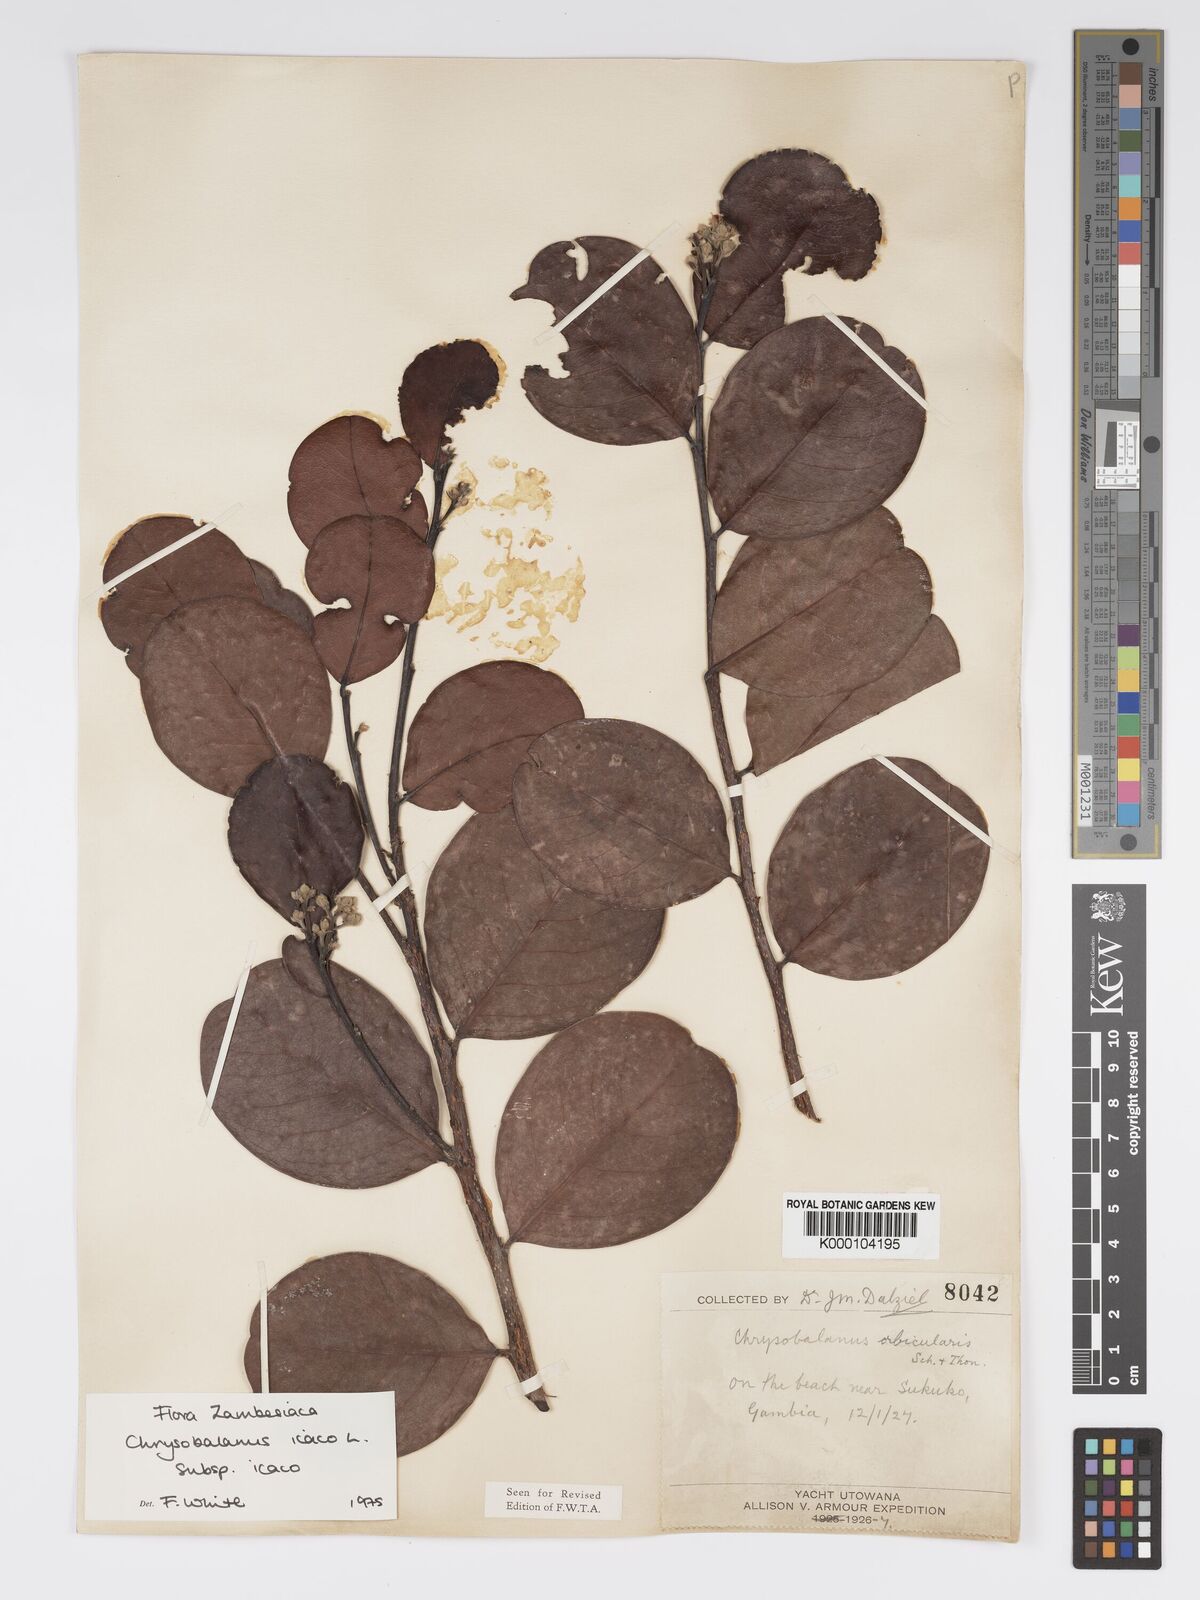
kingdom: Plantae
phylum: Tracheophyta
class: Magnoliopsida
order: Malpighiales
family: Chrysobalanaceae
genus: Chrysobalanus
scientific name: Chrysobalanus icaco
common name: Coco plum
